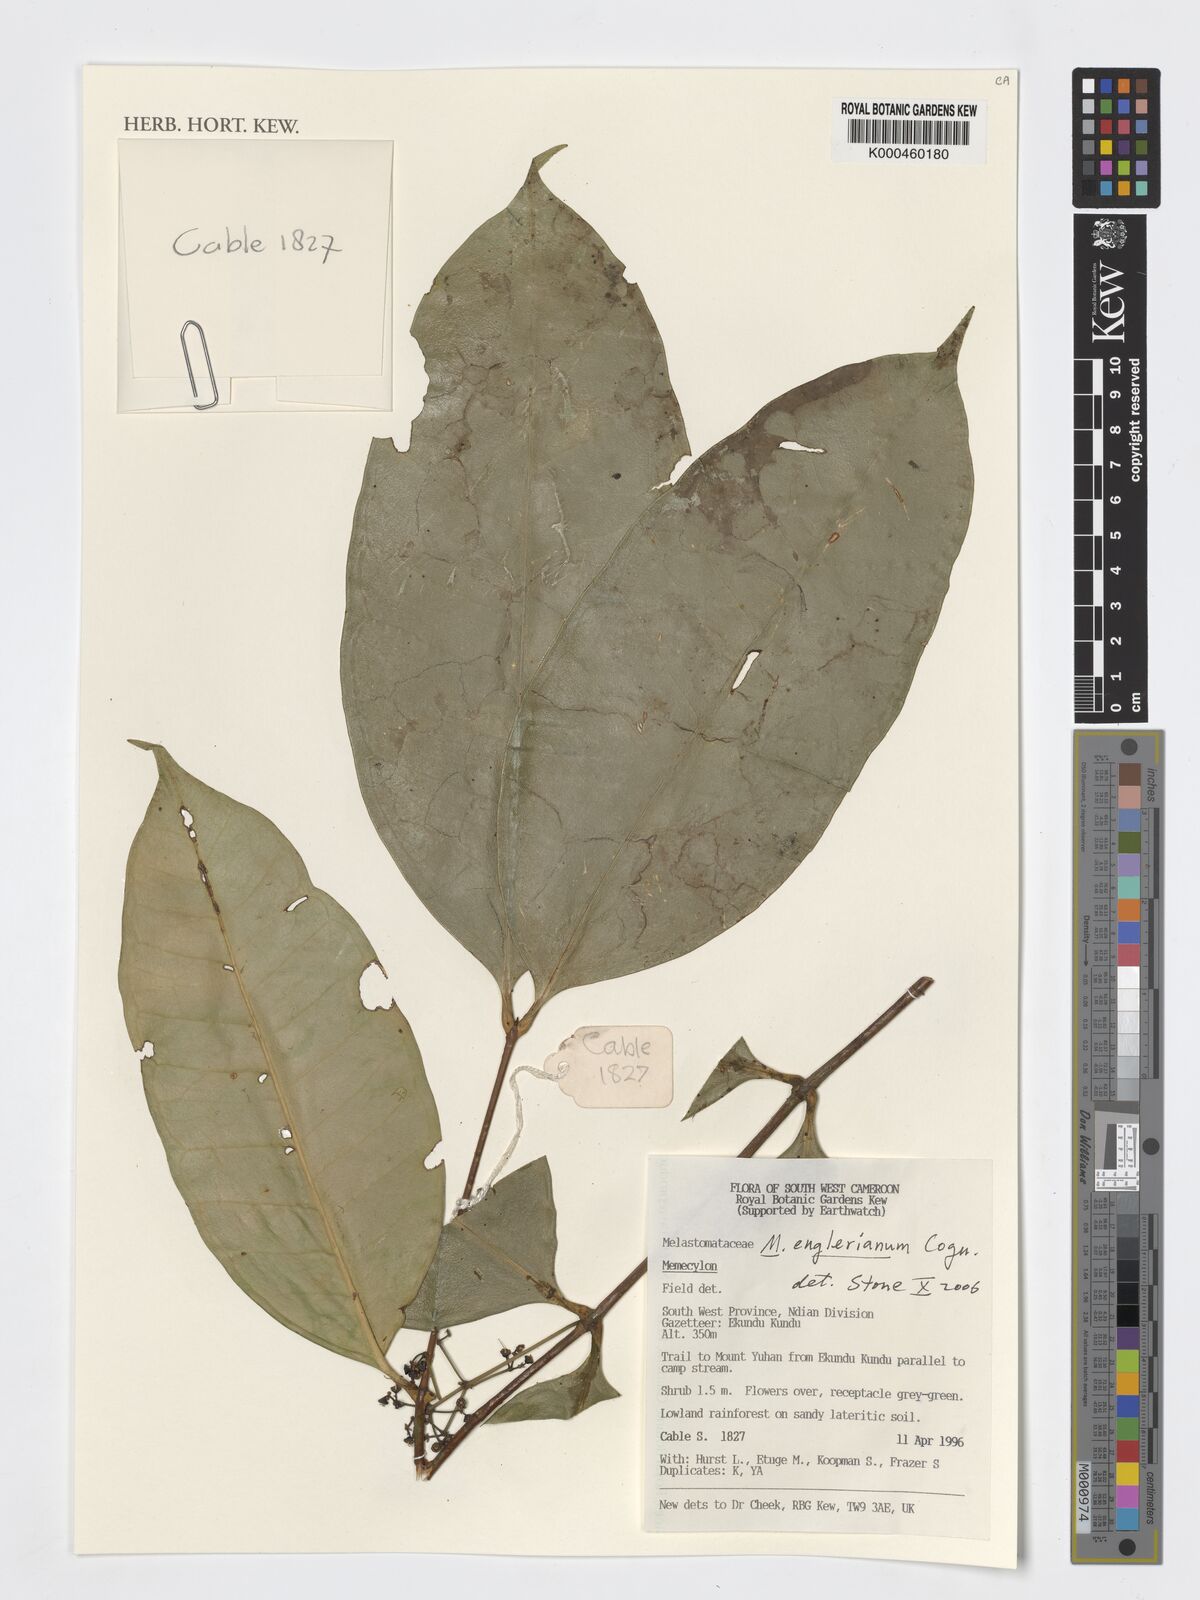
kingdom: Plantae
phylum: Tracheophyta
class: Magnoliopsida
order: Myrtales
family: Melastomataceae
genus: Memecylon
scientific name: Memecylon englerianum
